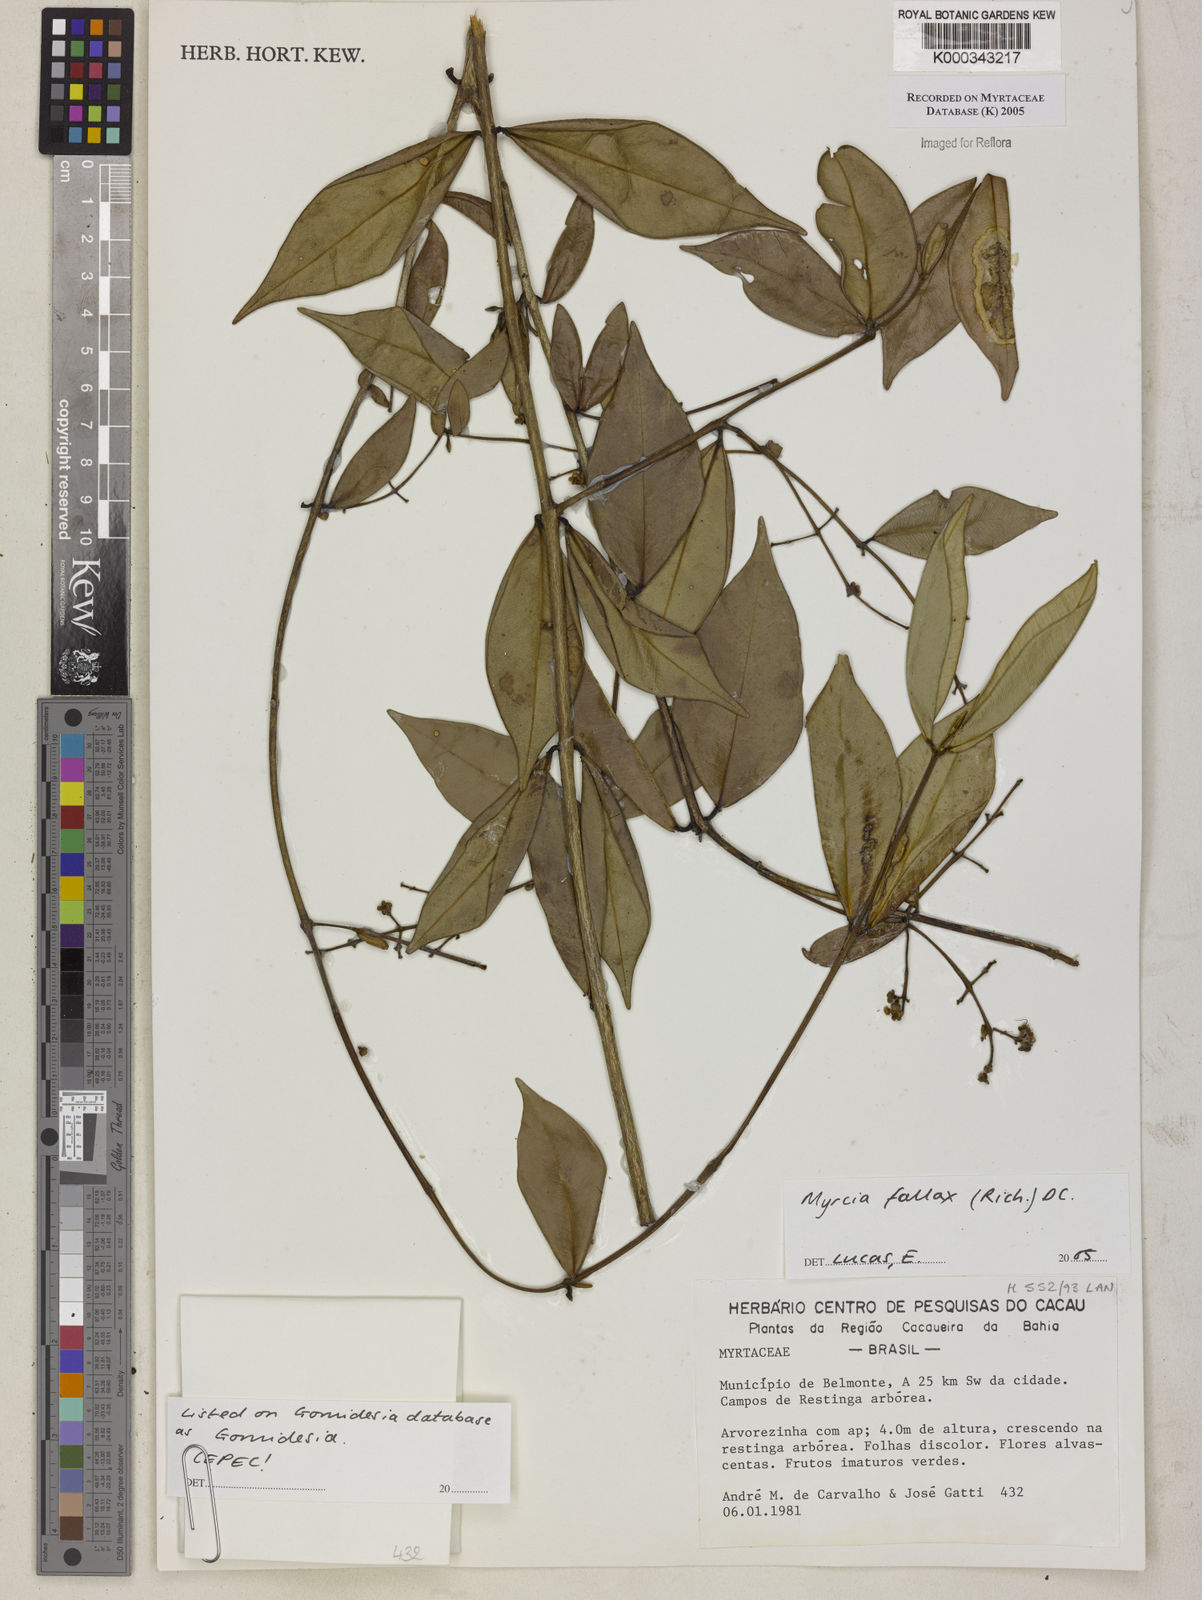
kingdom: Plantae
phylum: Tracheophyta
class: Magnoliopsida
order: Myrtales
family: Myrtaceae
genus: Myrcia
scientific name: Myrcia
